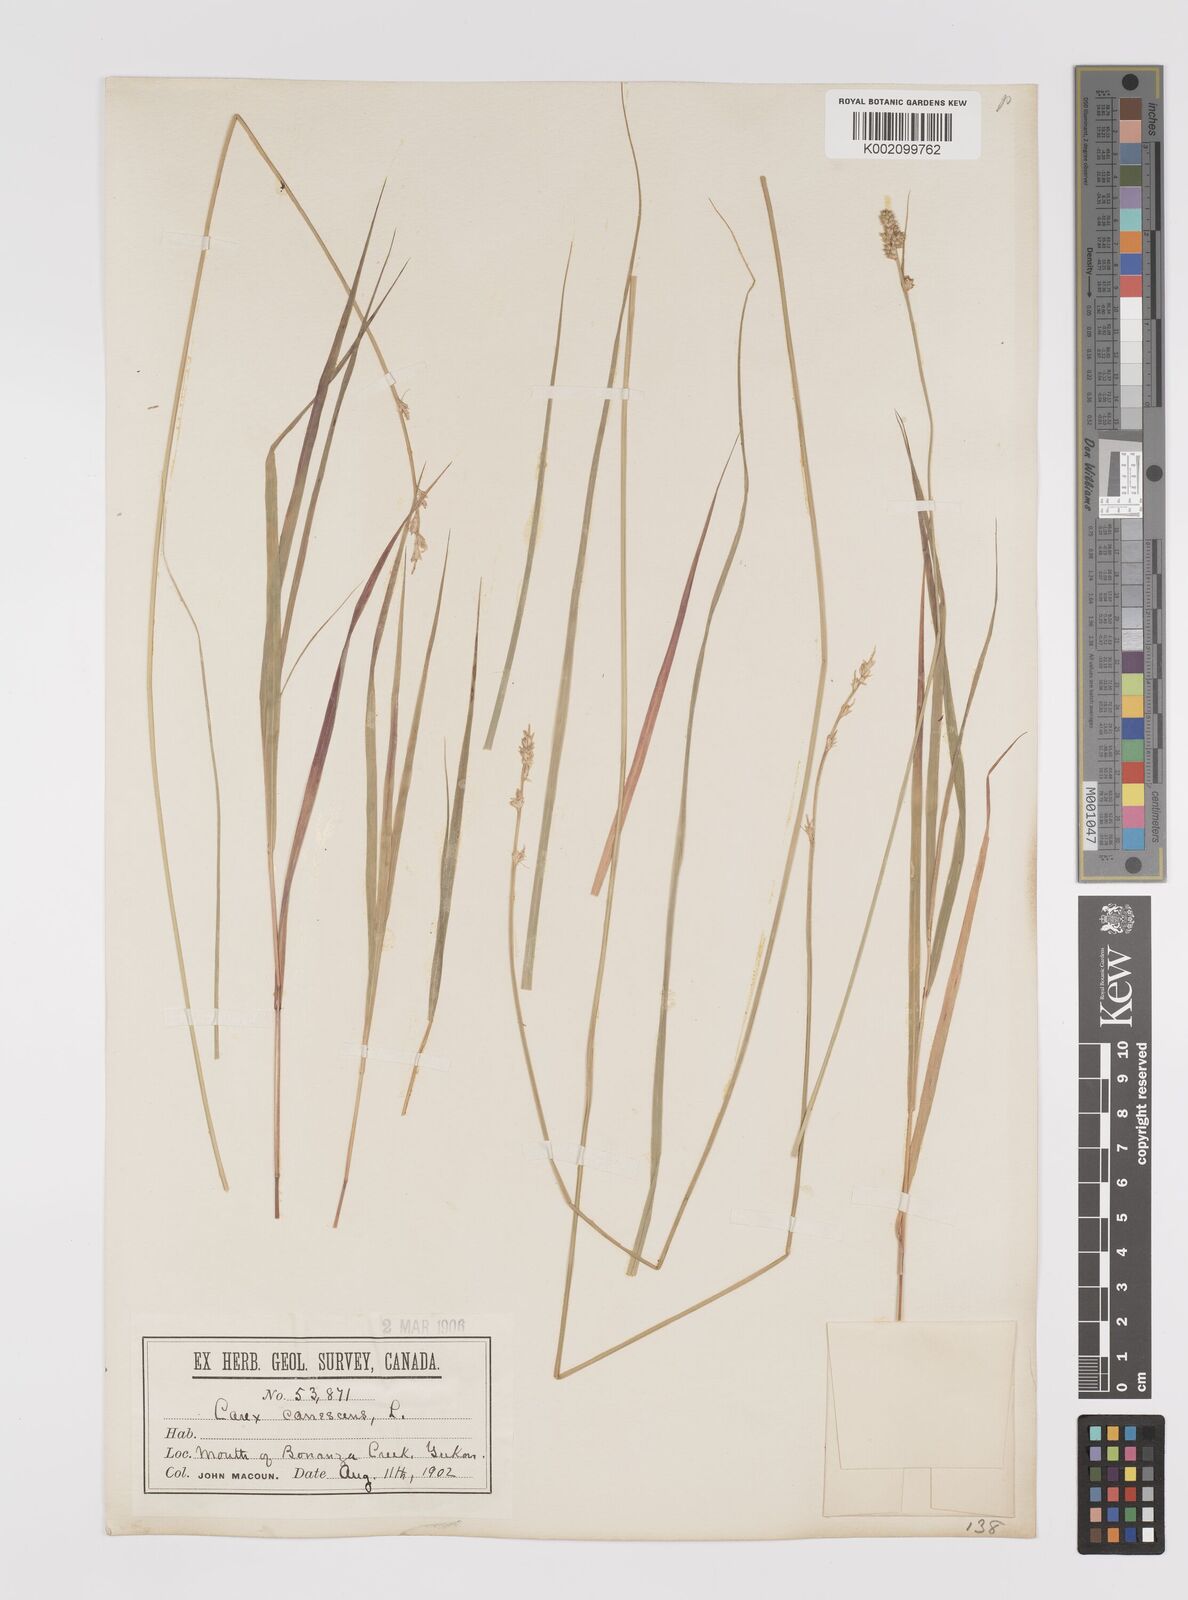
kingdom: Plantae
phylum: Tracheophyta
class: Liliopsida
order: Poales
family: Cyperaceae
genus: Carex
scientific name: Carex curta
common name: White sedge
